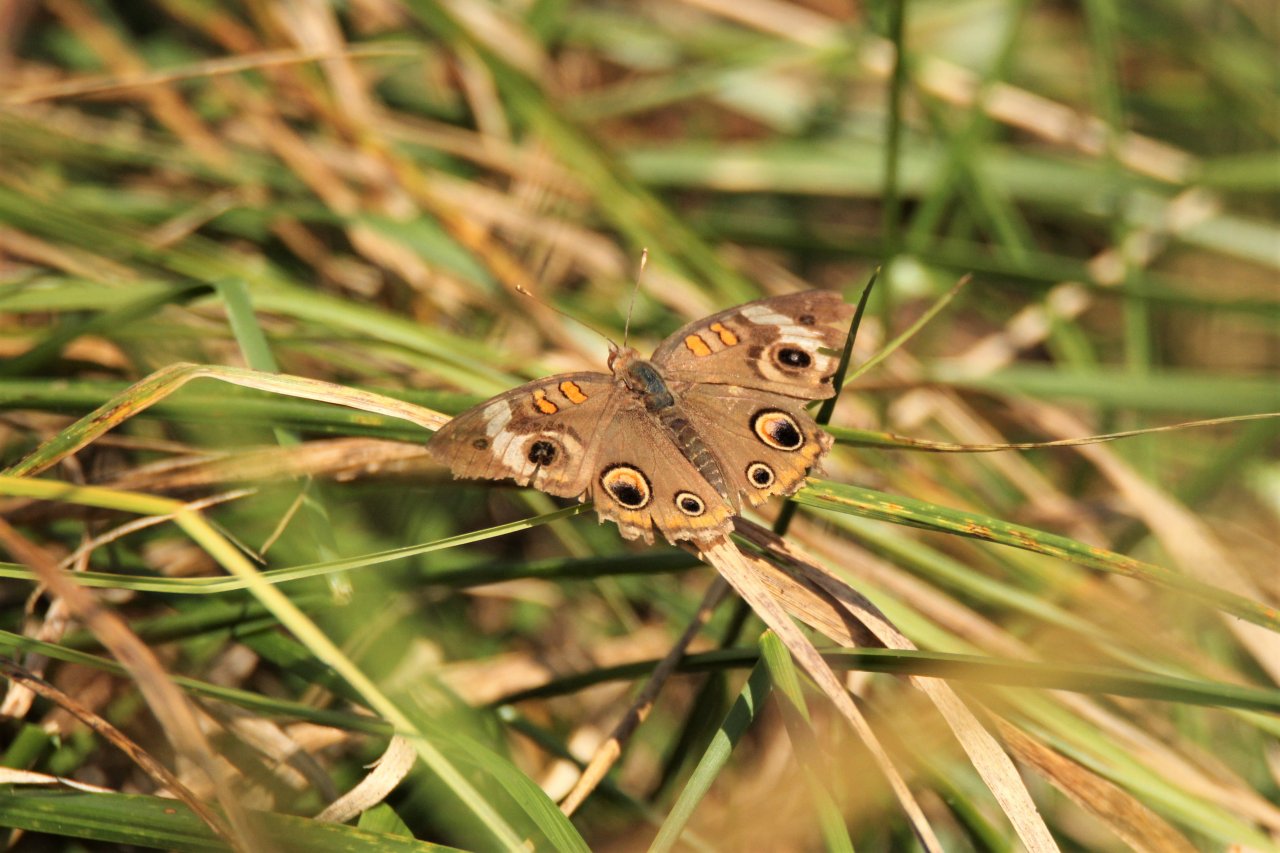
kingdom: Animalia
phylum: Arthropoda
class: Insecta
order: Lepidoptera
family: Nymphalidae
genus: Junonia
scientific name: Junonia coenia
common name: Common Buckeye
